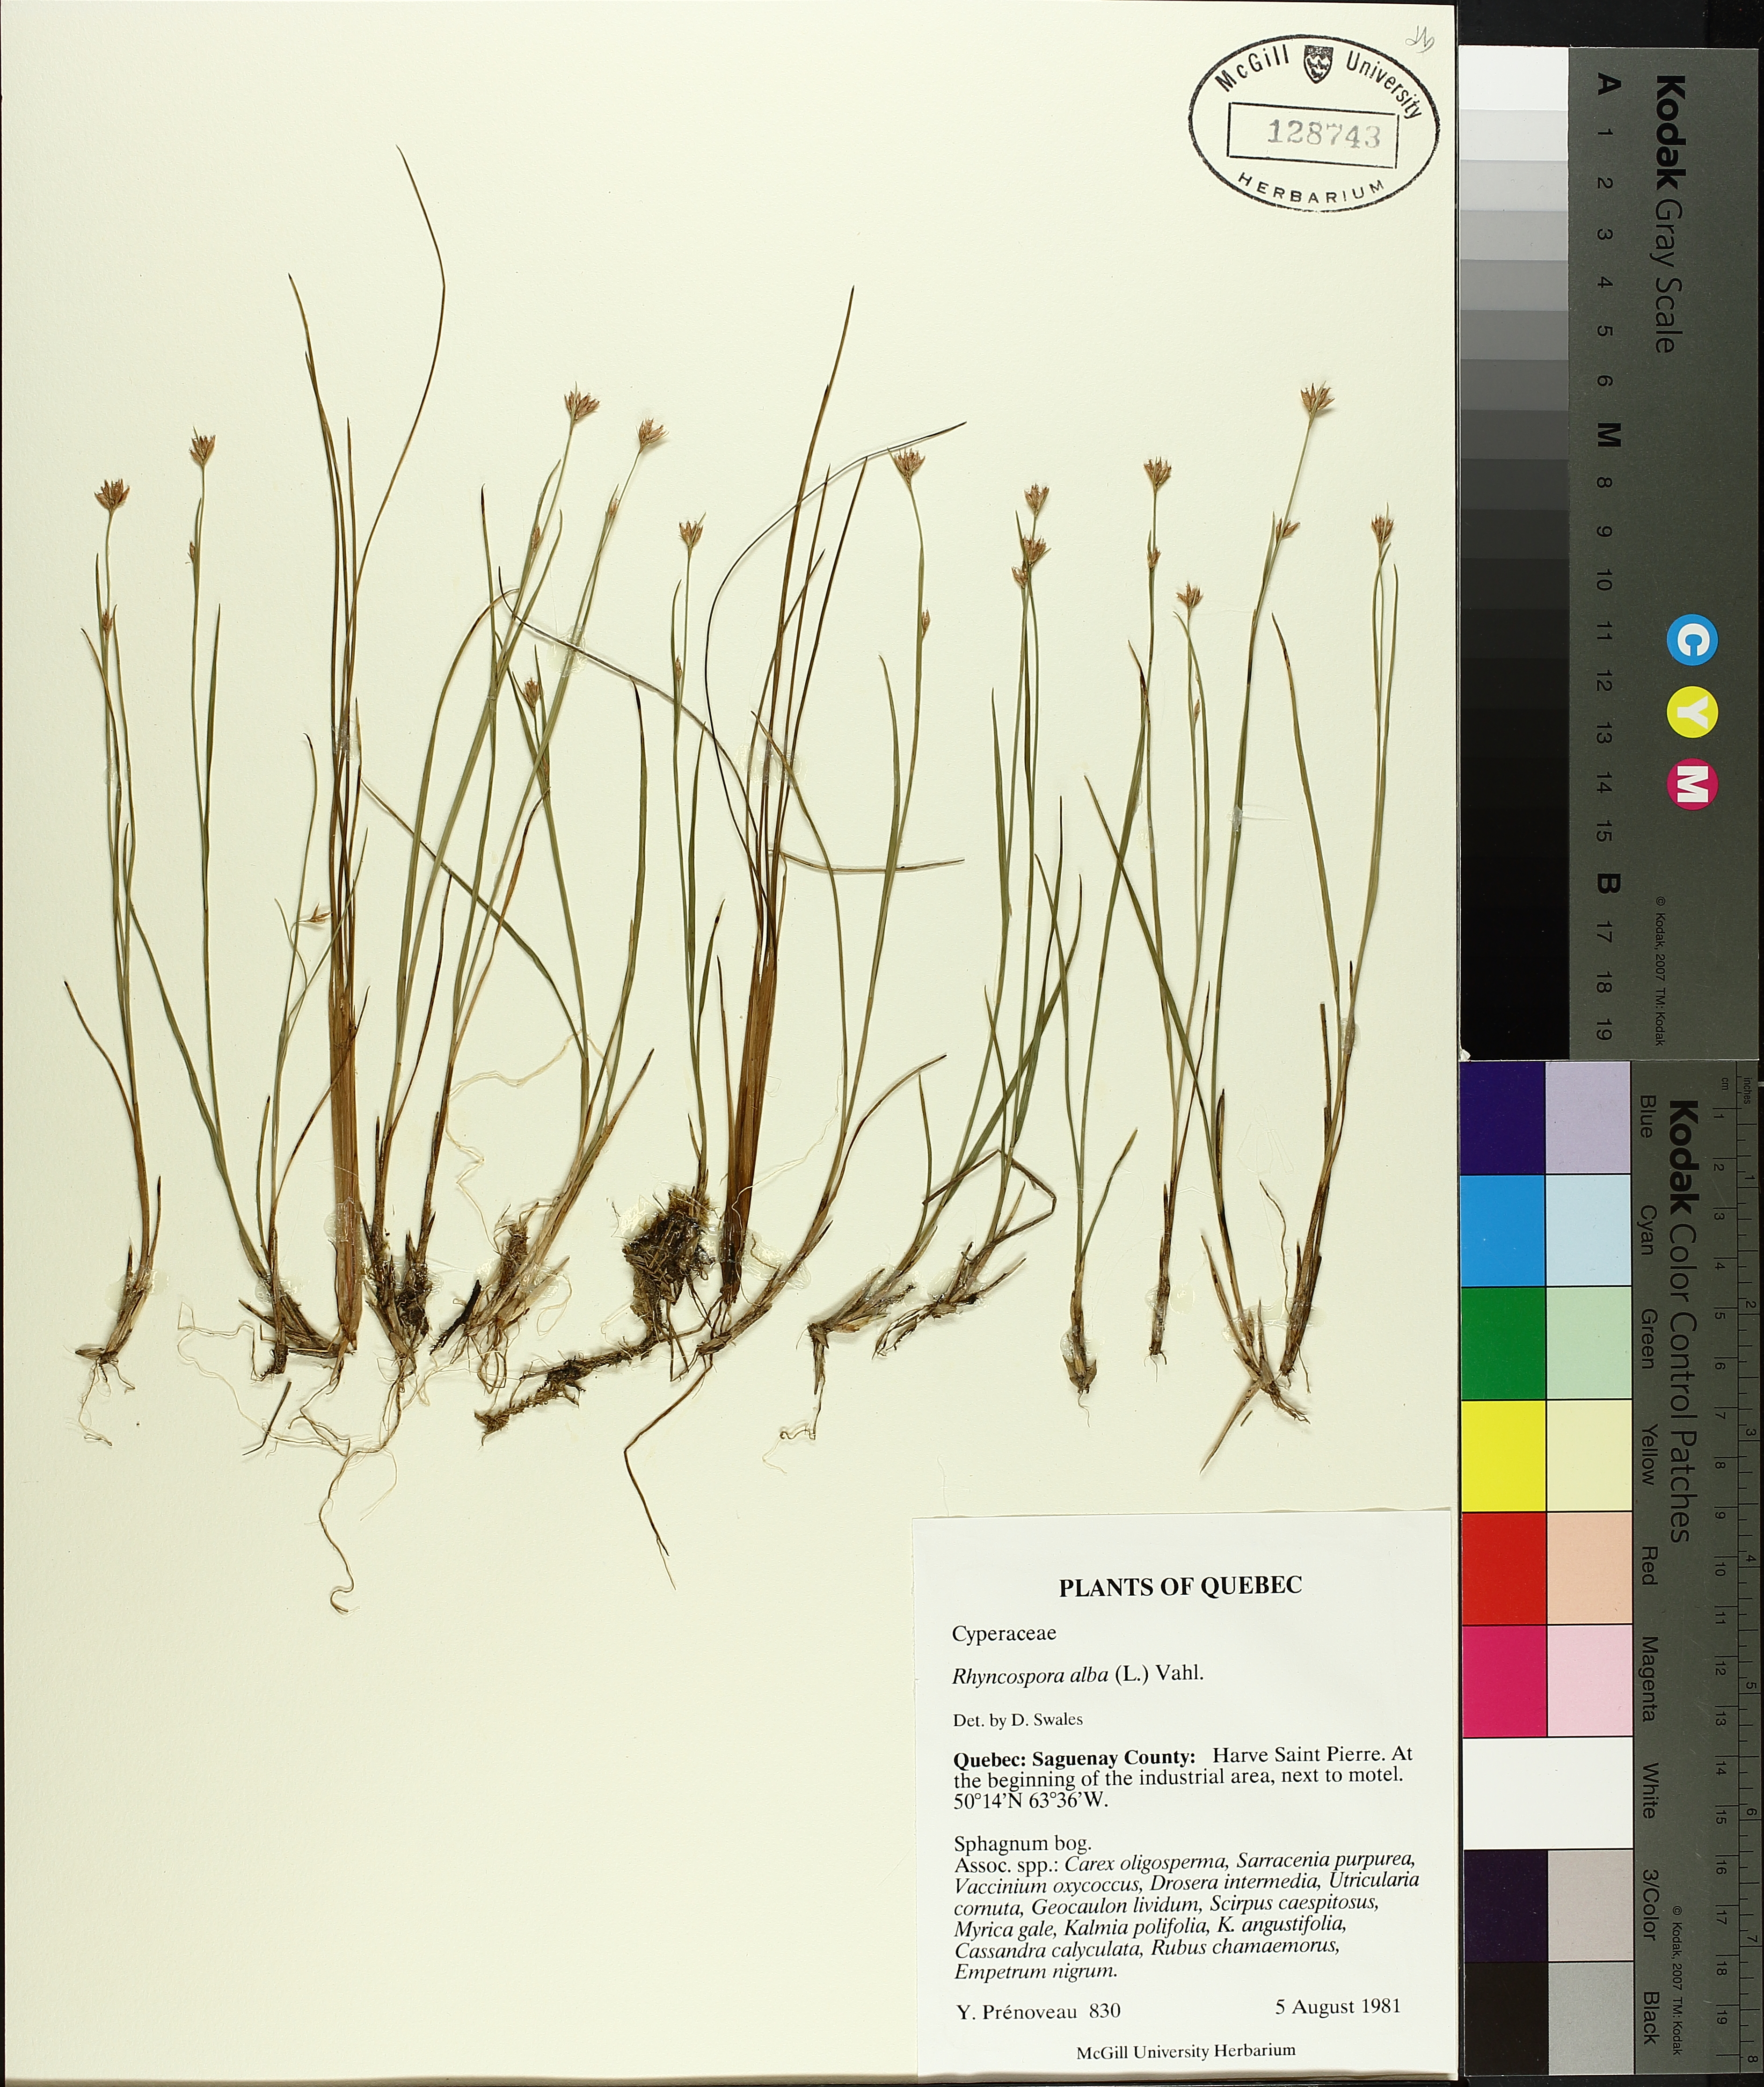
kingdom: Plantae
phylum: Tracheophyta
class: Liliopsida
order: Poales
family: Cyperaceae
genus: Rhynchospora
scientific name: Rhynchospora alba
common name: White beak-sedge
